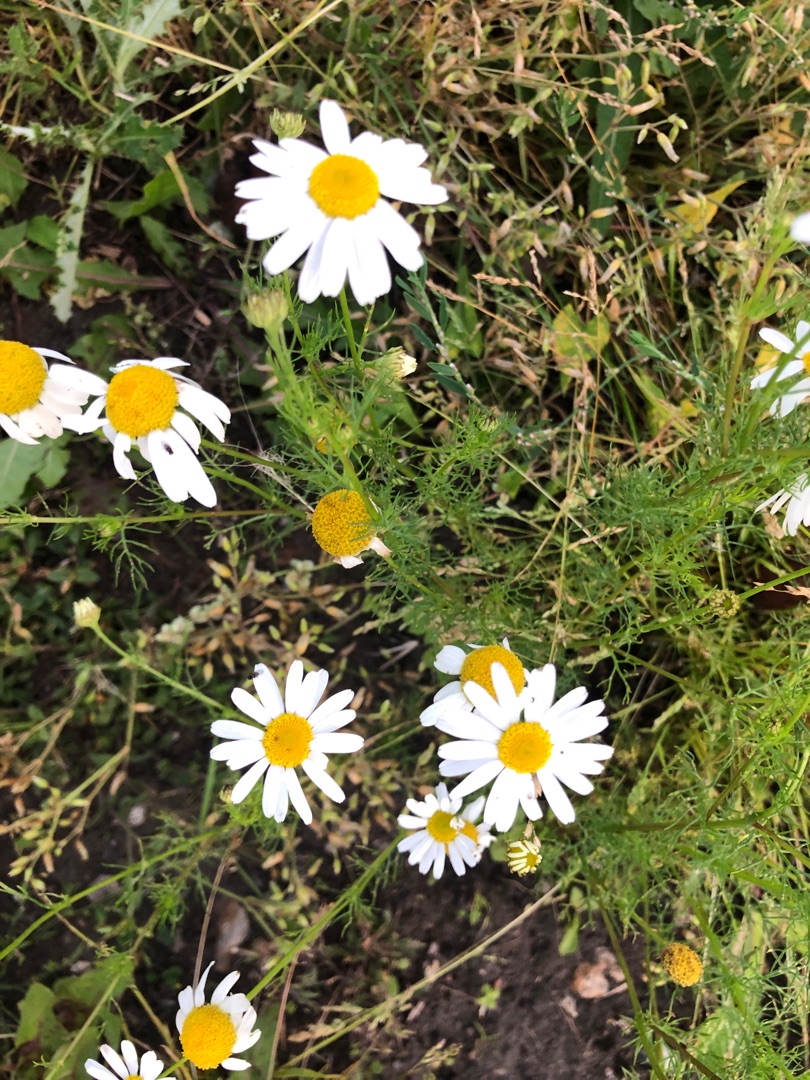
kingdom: Plantae
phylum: Tracheophyta
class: Magnoliopsida
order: Asterales
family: Asteraceae
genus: Tripleurospermum
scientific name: Tripleurospermum inodorum
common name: Lugtløs kamille
